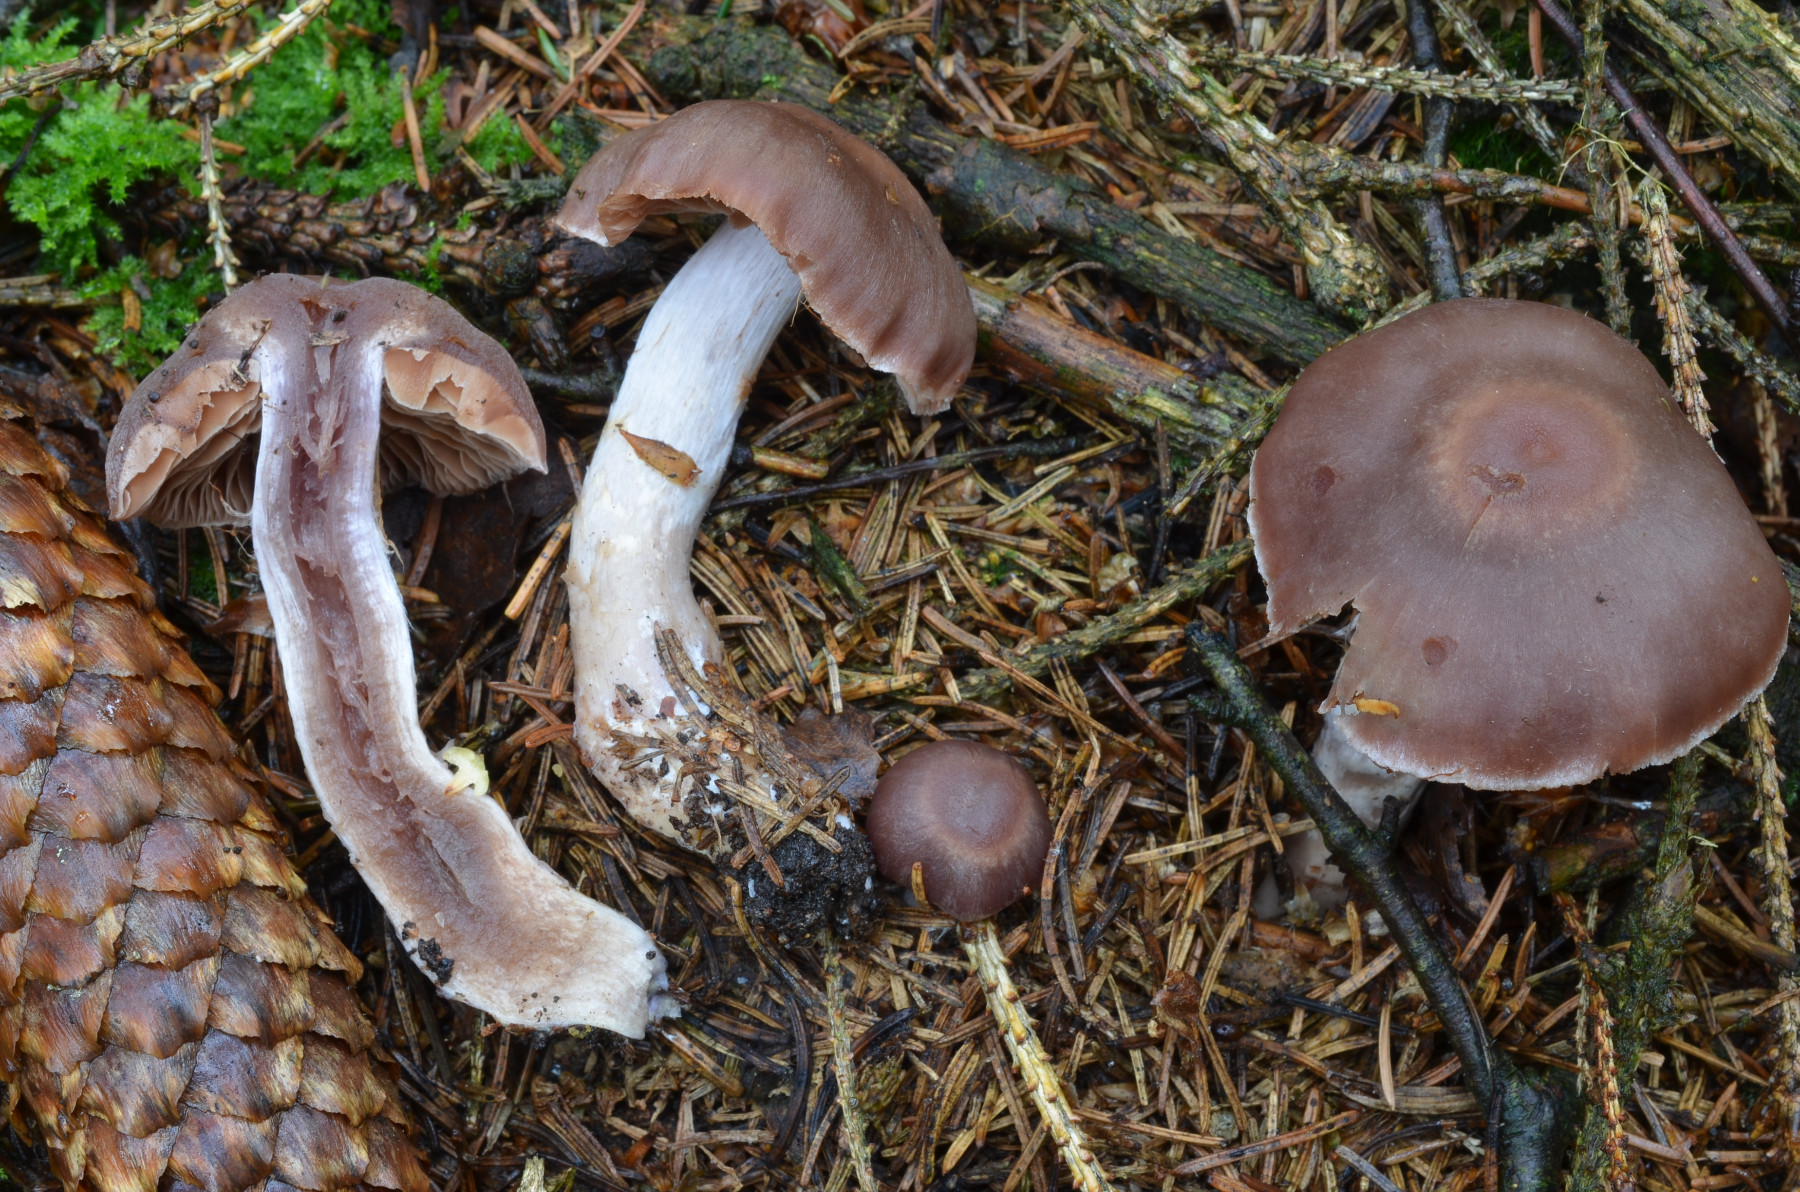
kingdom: Fungi
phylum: Basidiomycota
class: Agaricomycetes
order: Agaricales
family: Cortinariaceae
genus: Cortinarius
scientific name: Cortinarius hircinosmus
